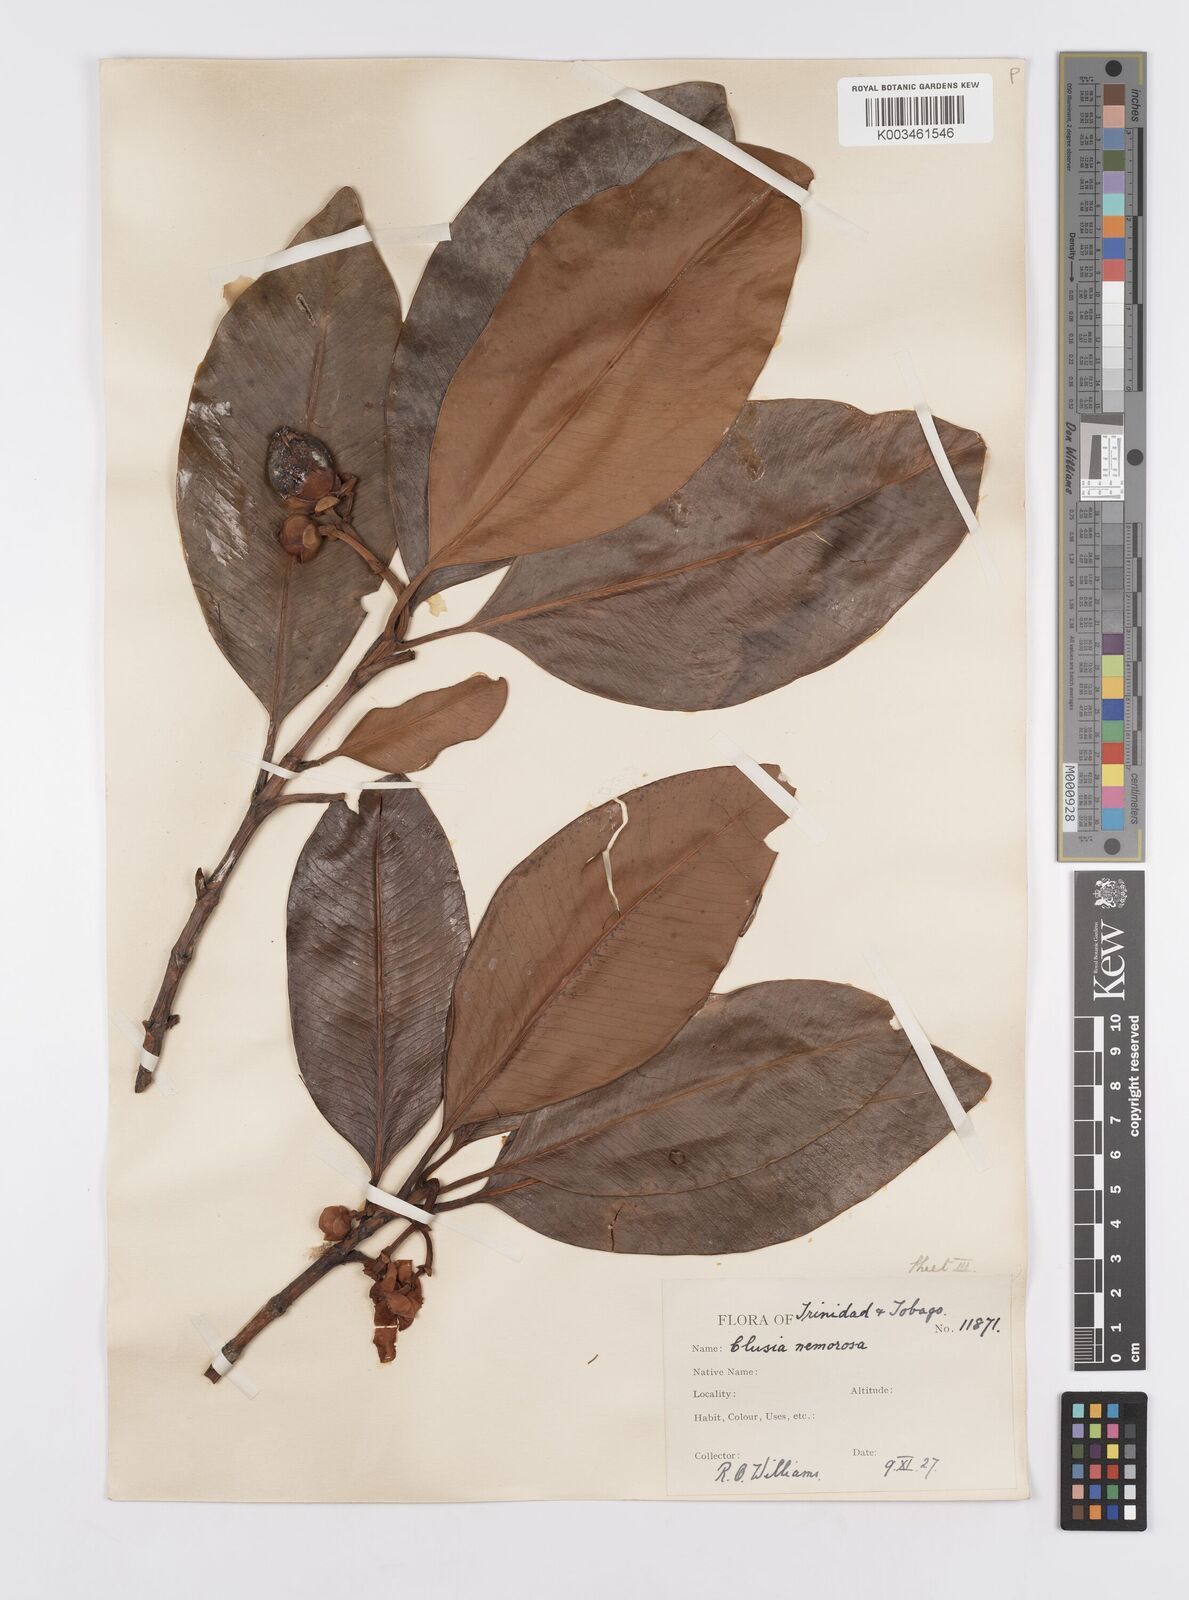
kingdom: Plantae
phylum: Tracheophyta
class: Magnoliopsida
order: Malpighiales
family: Clusiaceae
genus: Clusia
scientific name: Clusia nemorosa
